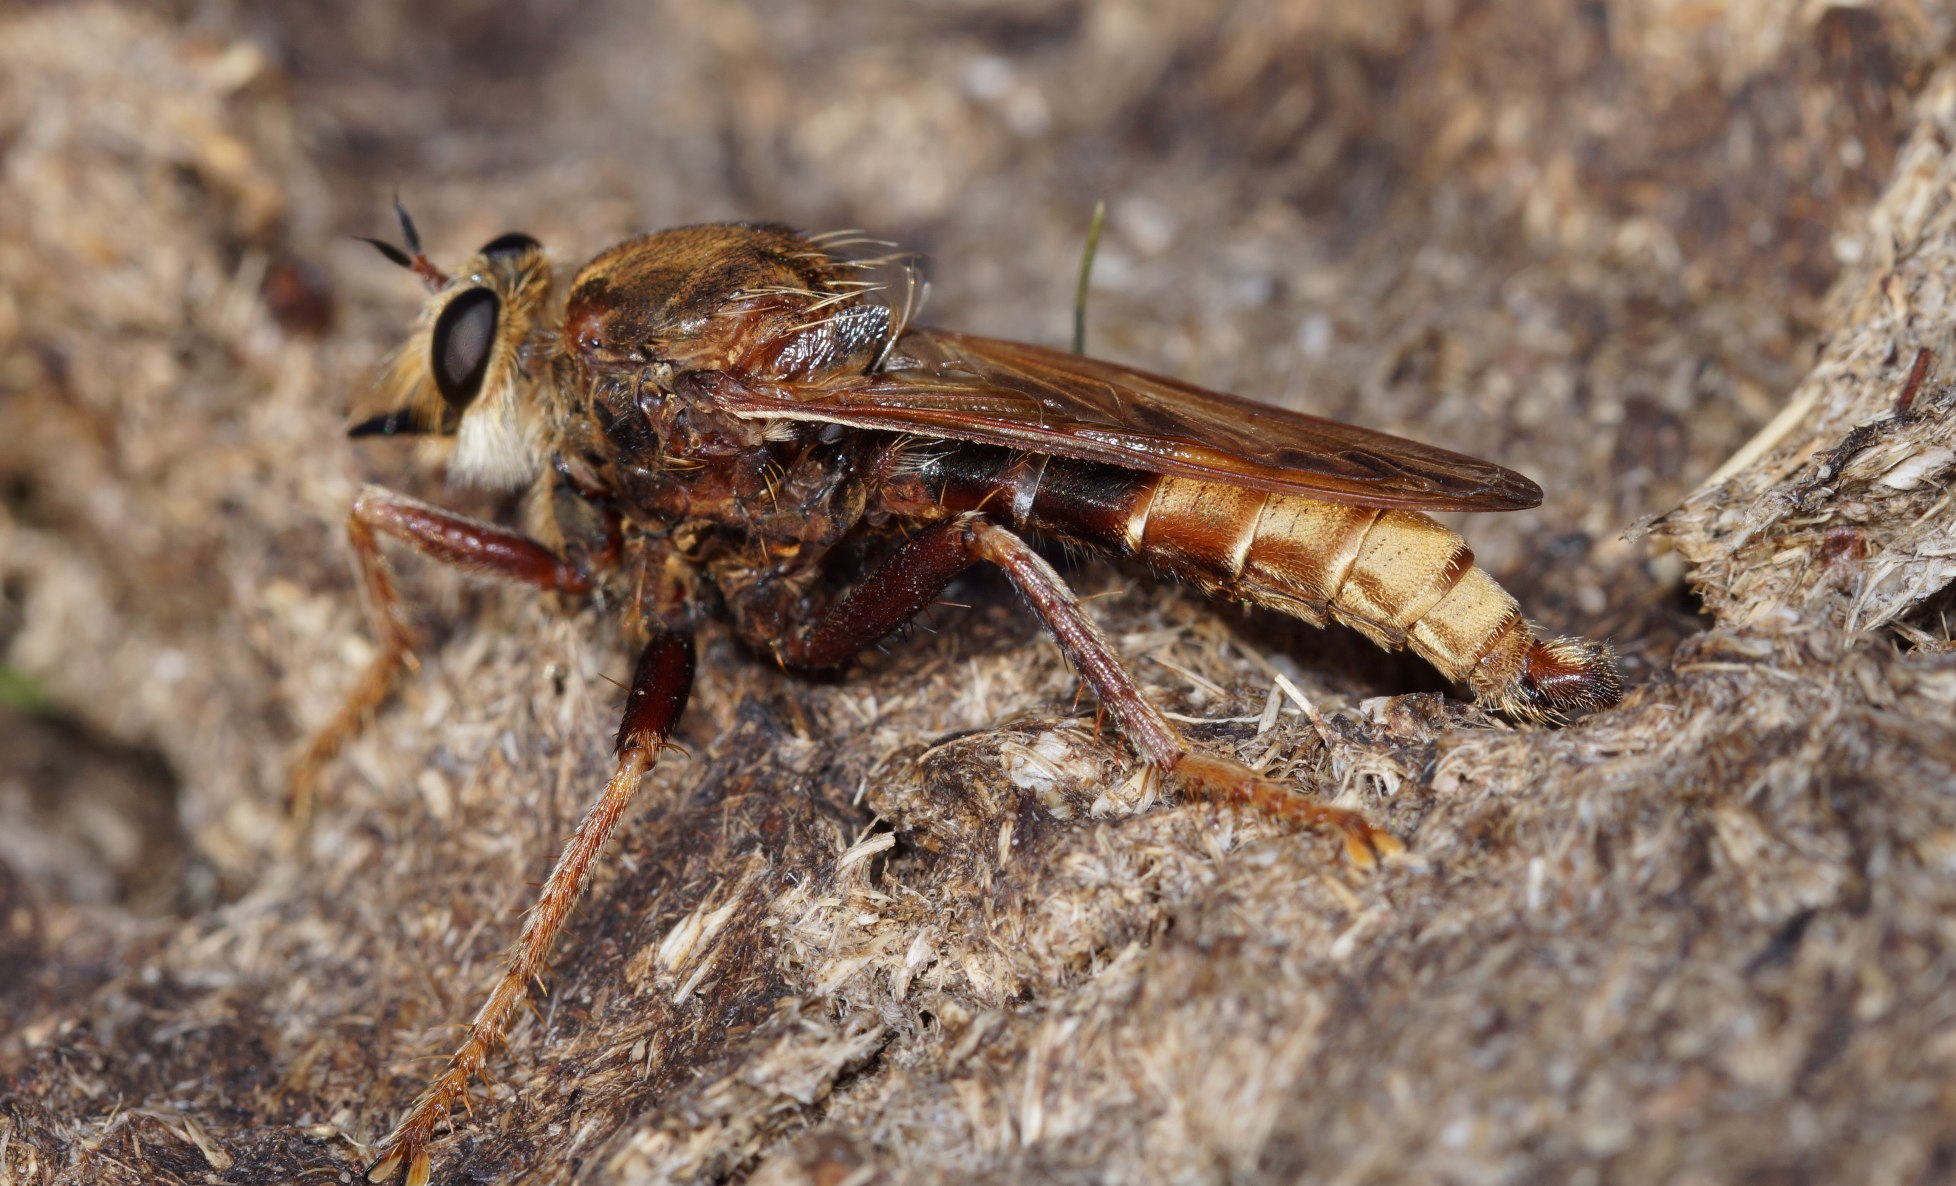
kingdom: Animalia
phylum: Arthropoda
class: Insecta
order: Diptera
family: Asilidae
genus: Asilus
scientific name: Asilus crabroniformis
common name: Stor gødningsrovflue
